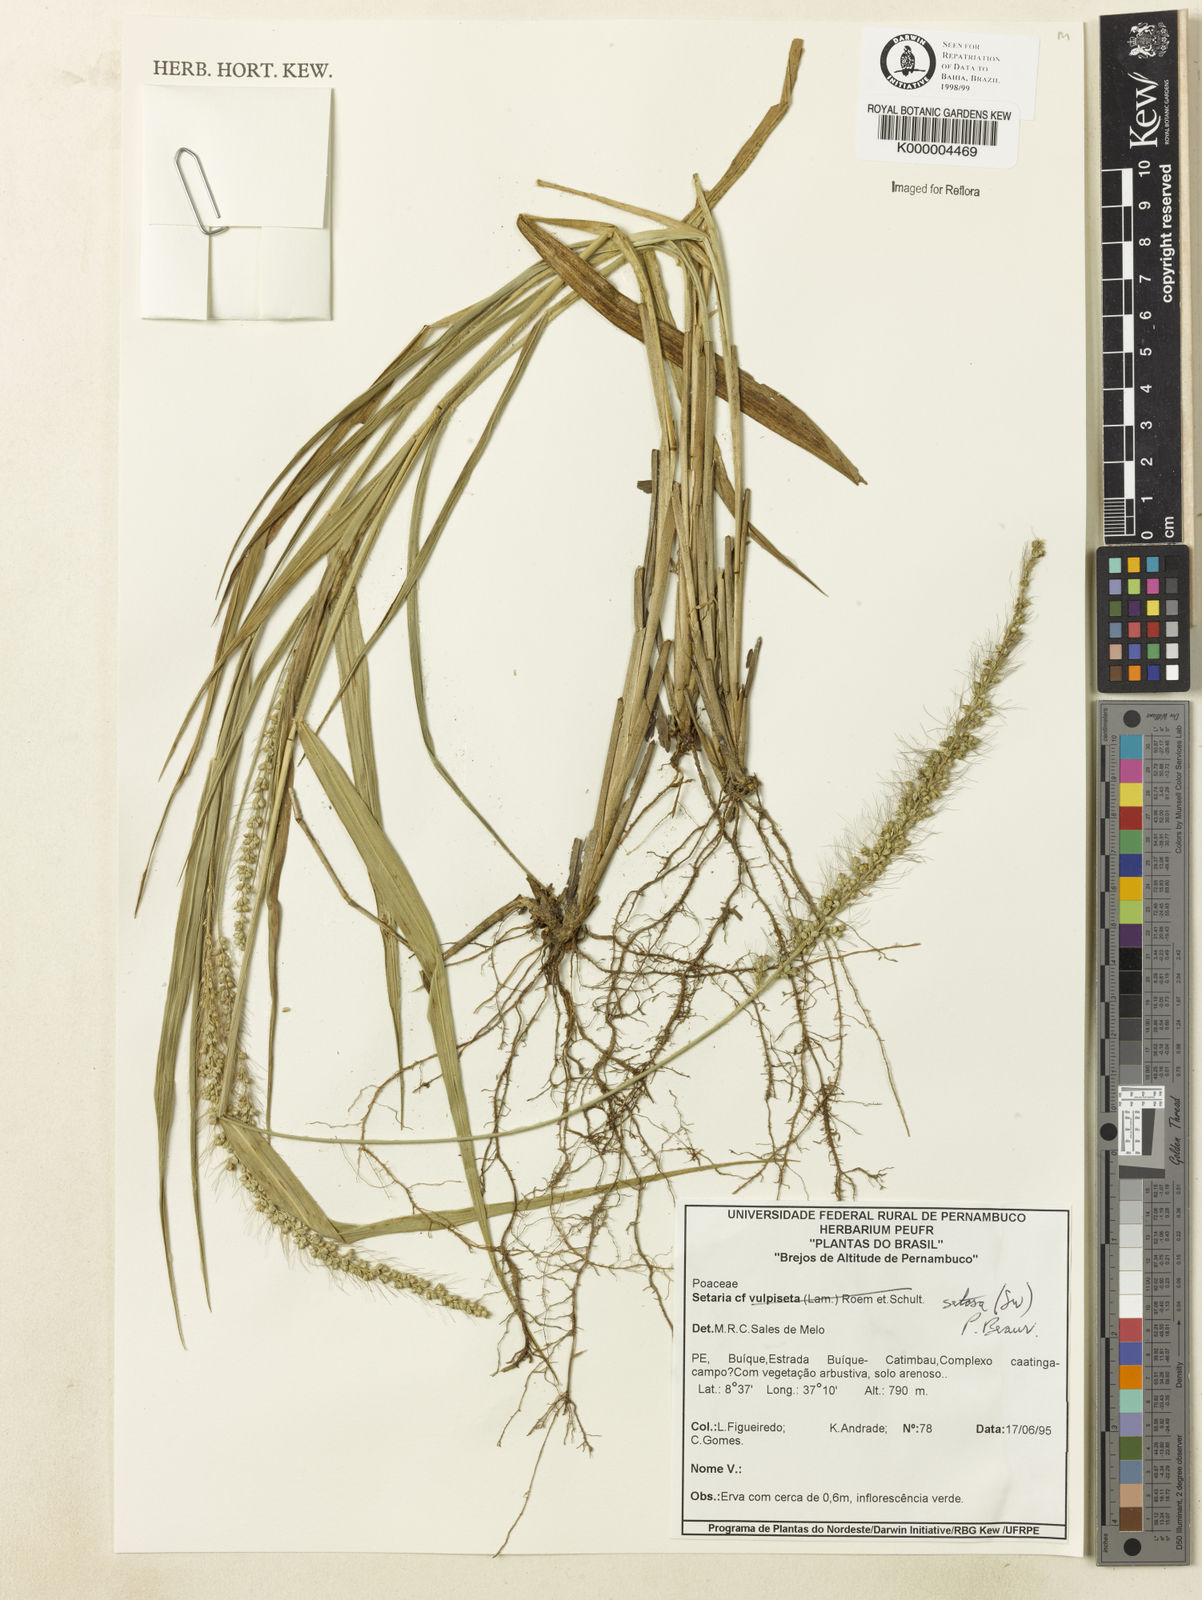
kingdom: Plantae
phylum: Tracheophyta
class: Liliopsida
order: Poales
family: Poaceae
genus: Setaria
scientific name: Setaria setosa
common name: West indies bristle grass
